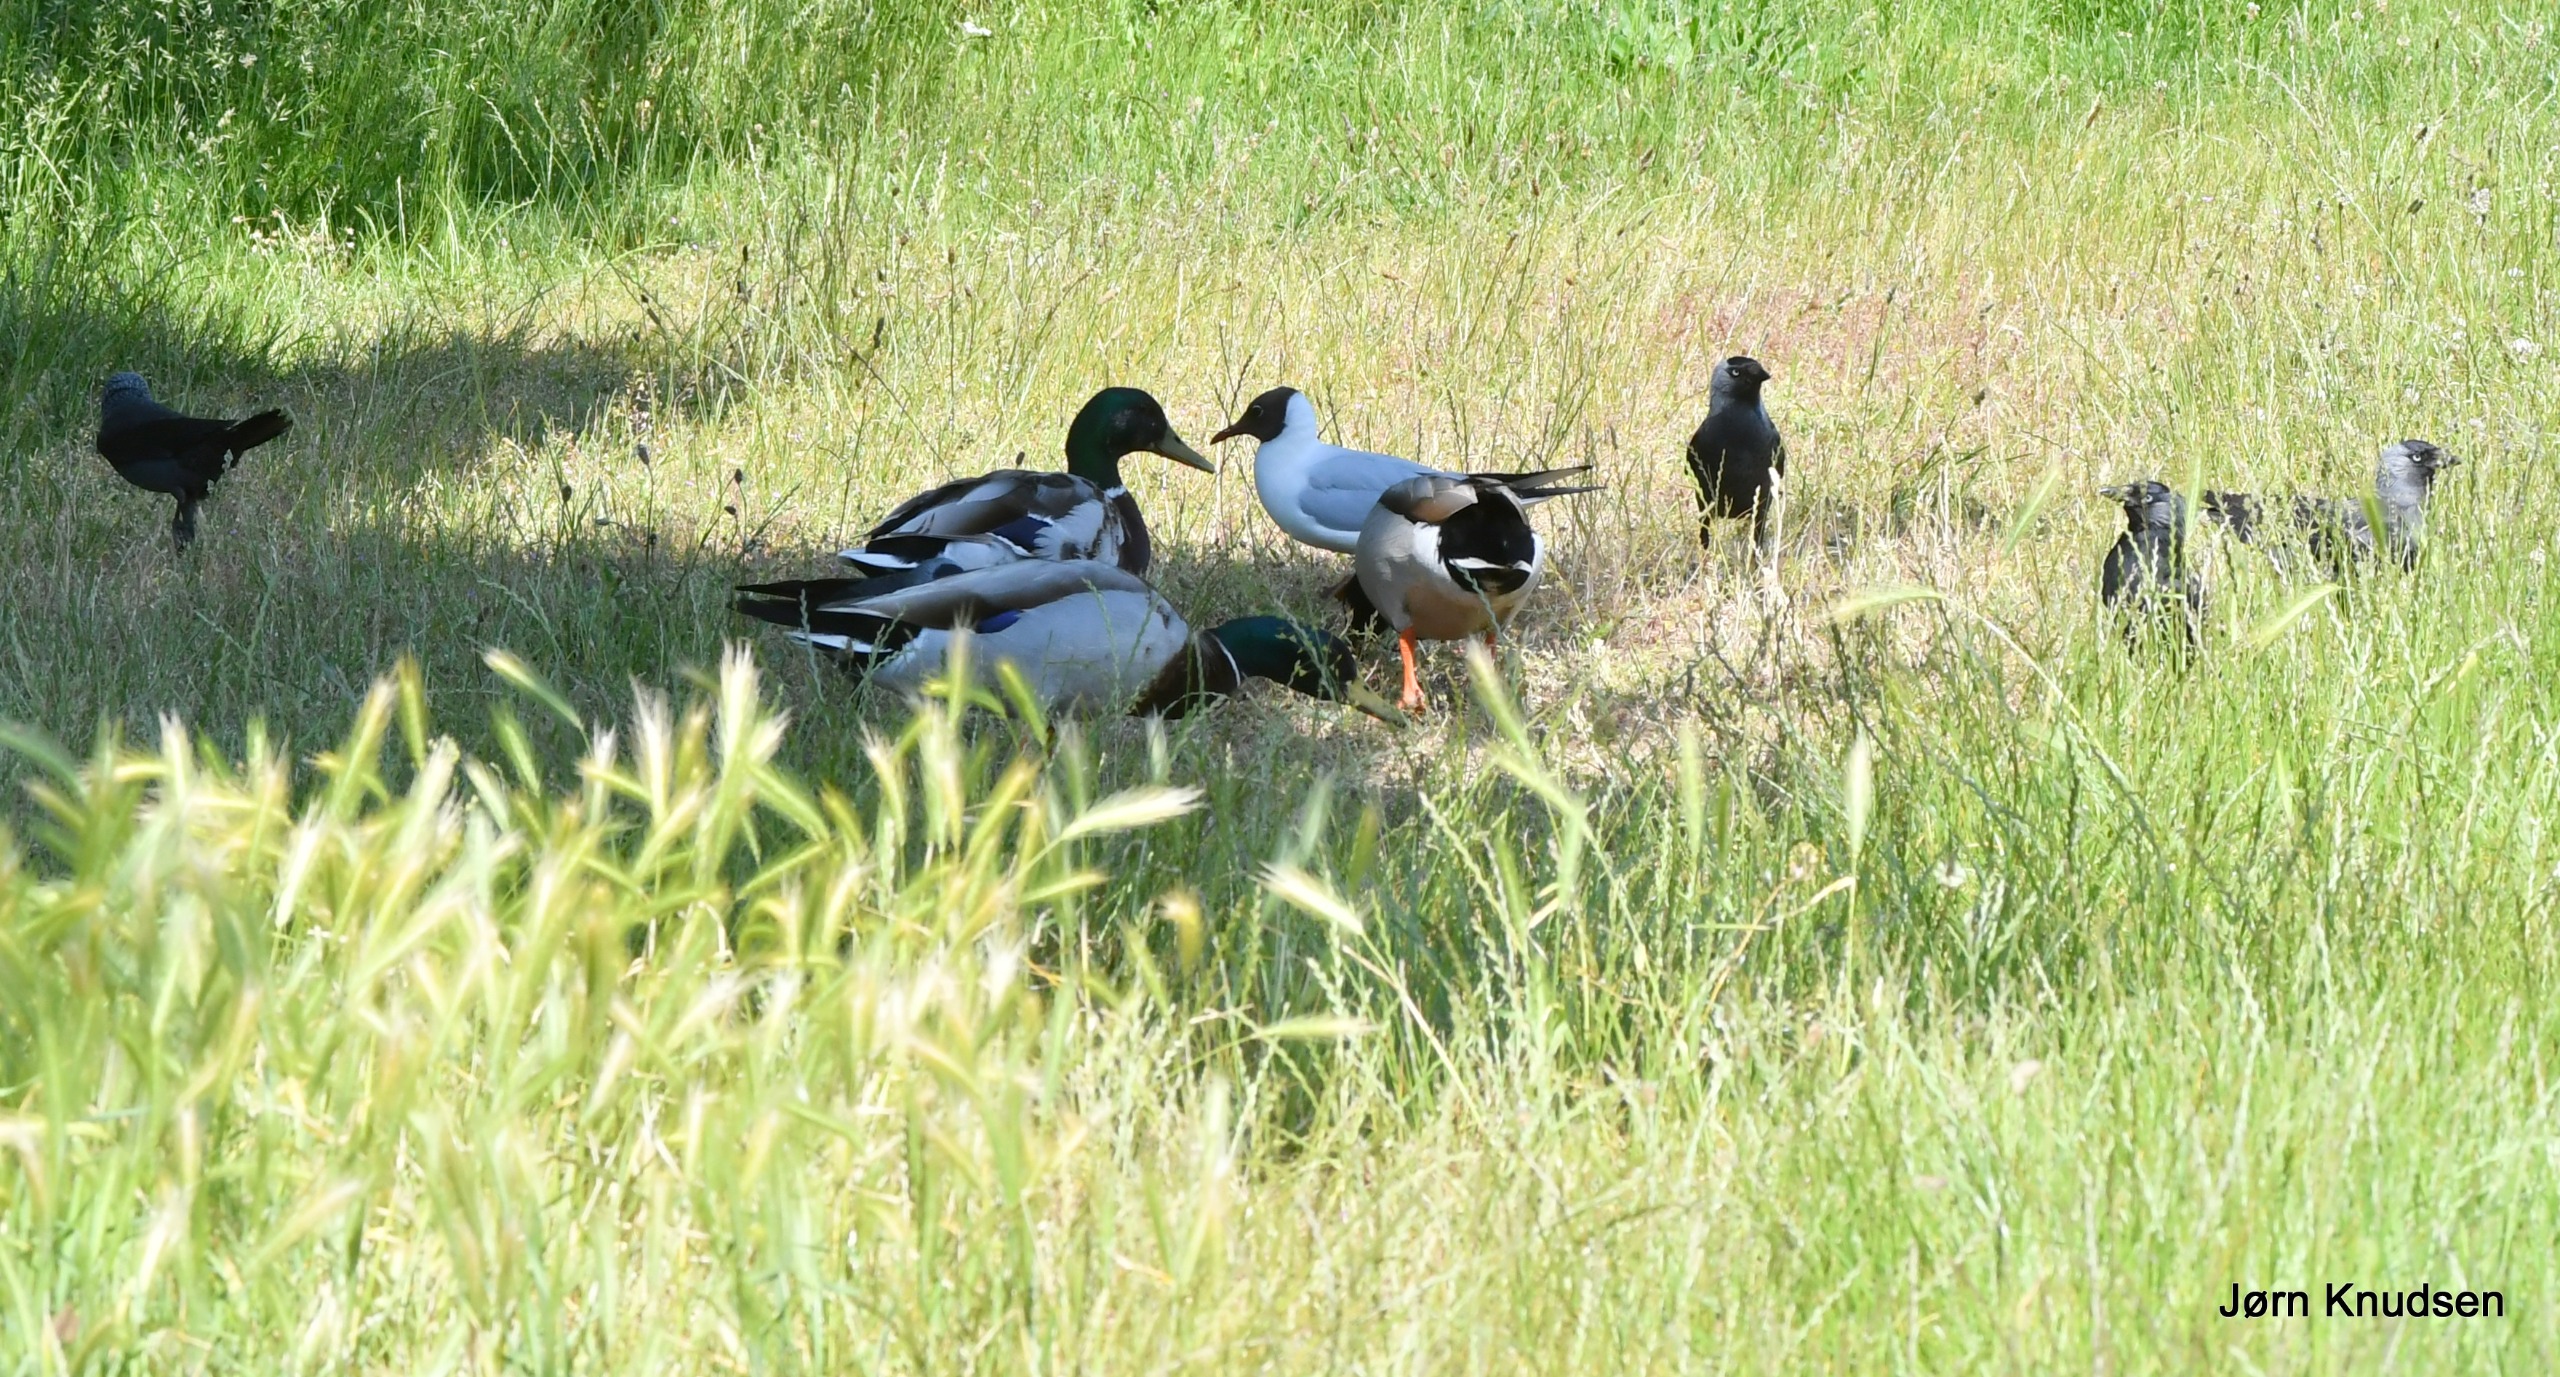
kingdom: Animalia
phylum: Chordata
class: Aves
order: Anseriformes
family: Anatidae
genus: Anas
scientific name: Anas platyrhynchos
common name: Gråand
